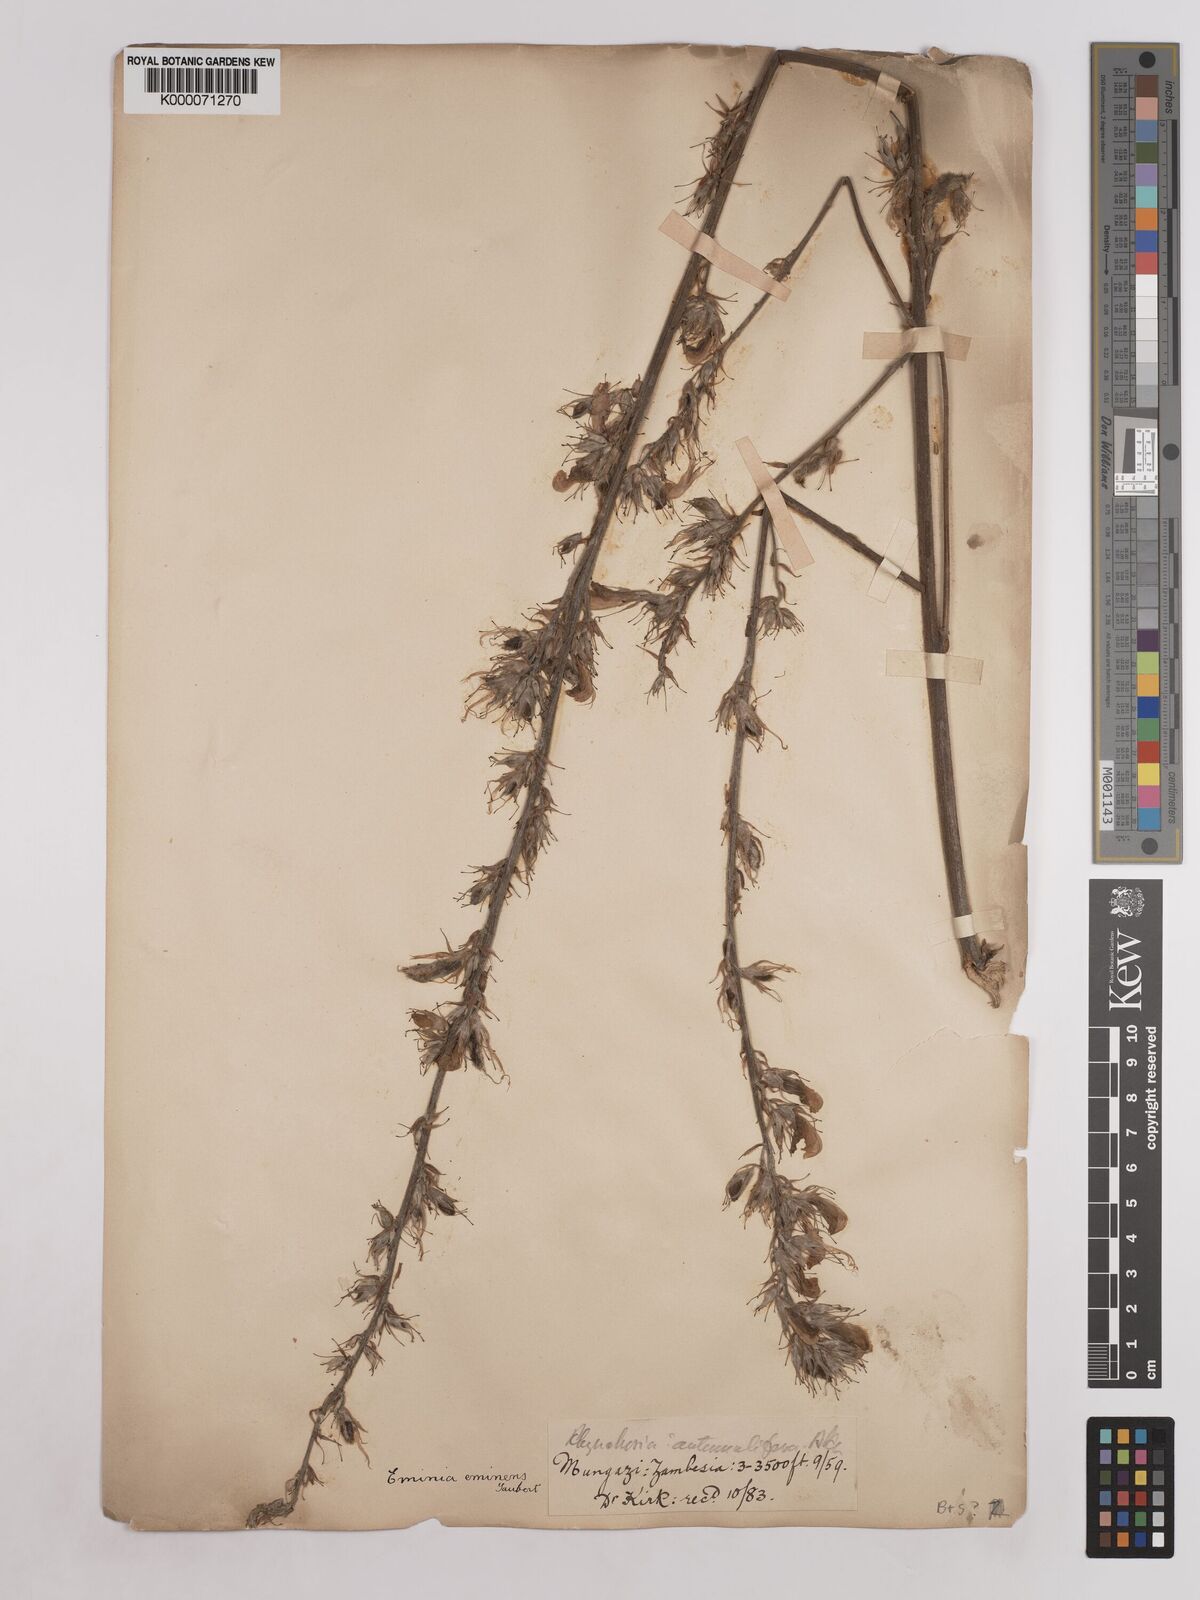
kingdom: Plantae
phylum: Tracheophyta
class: Magnoliopsida
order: Fabales
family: Fabaceae
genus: Eminia
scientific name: Eminia antennulifera
